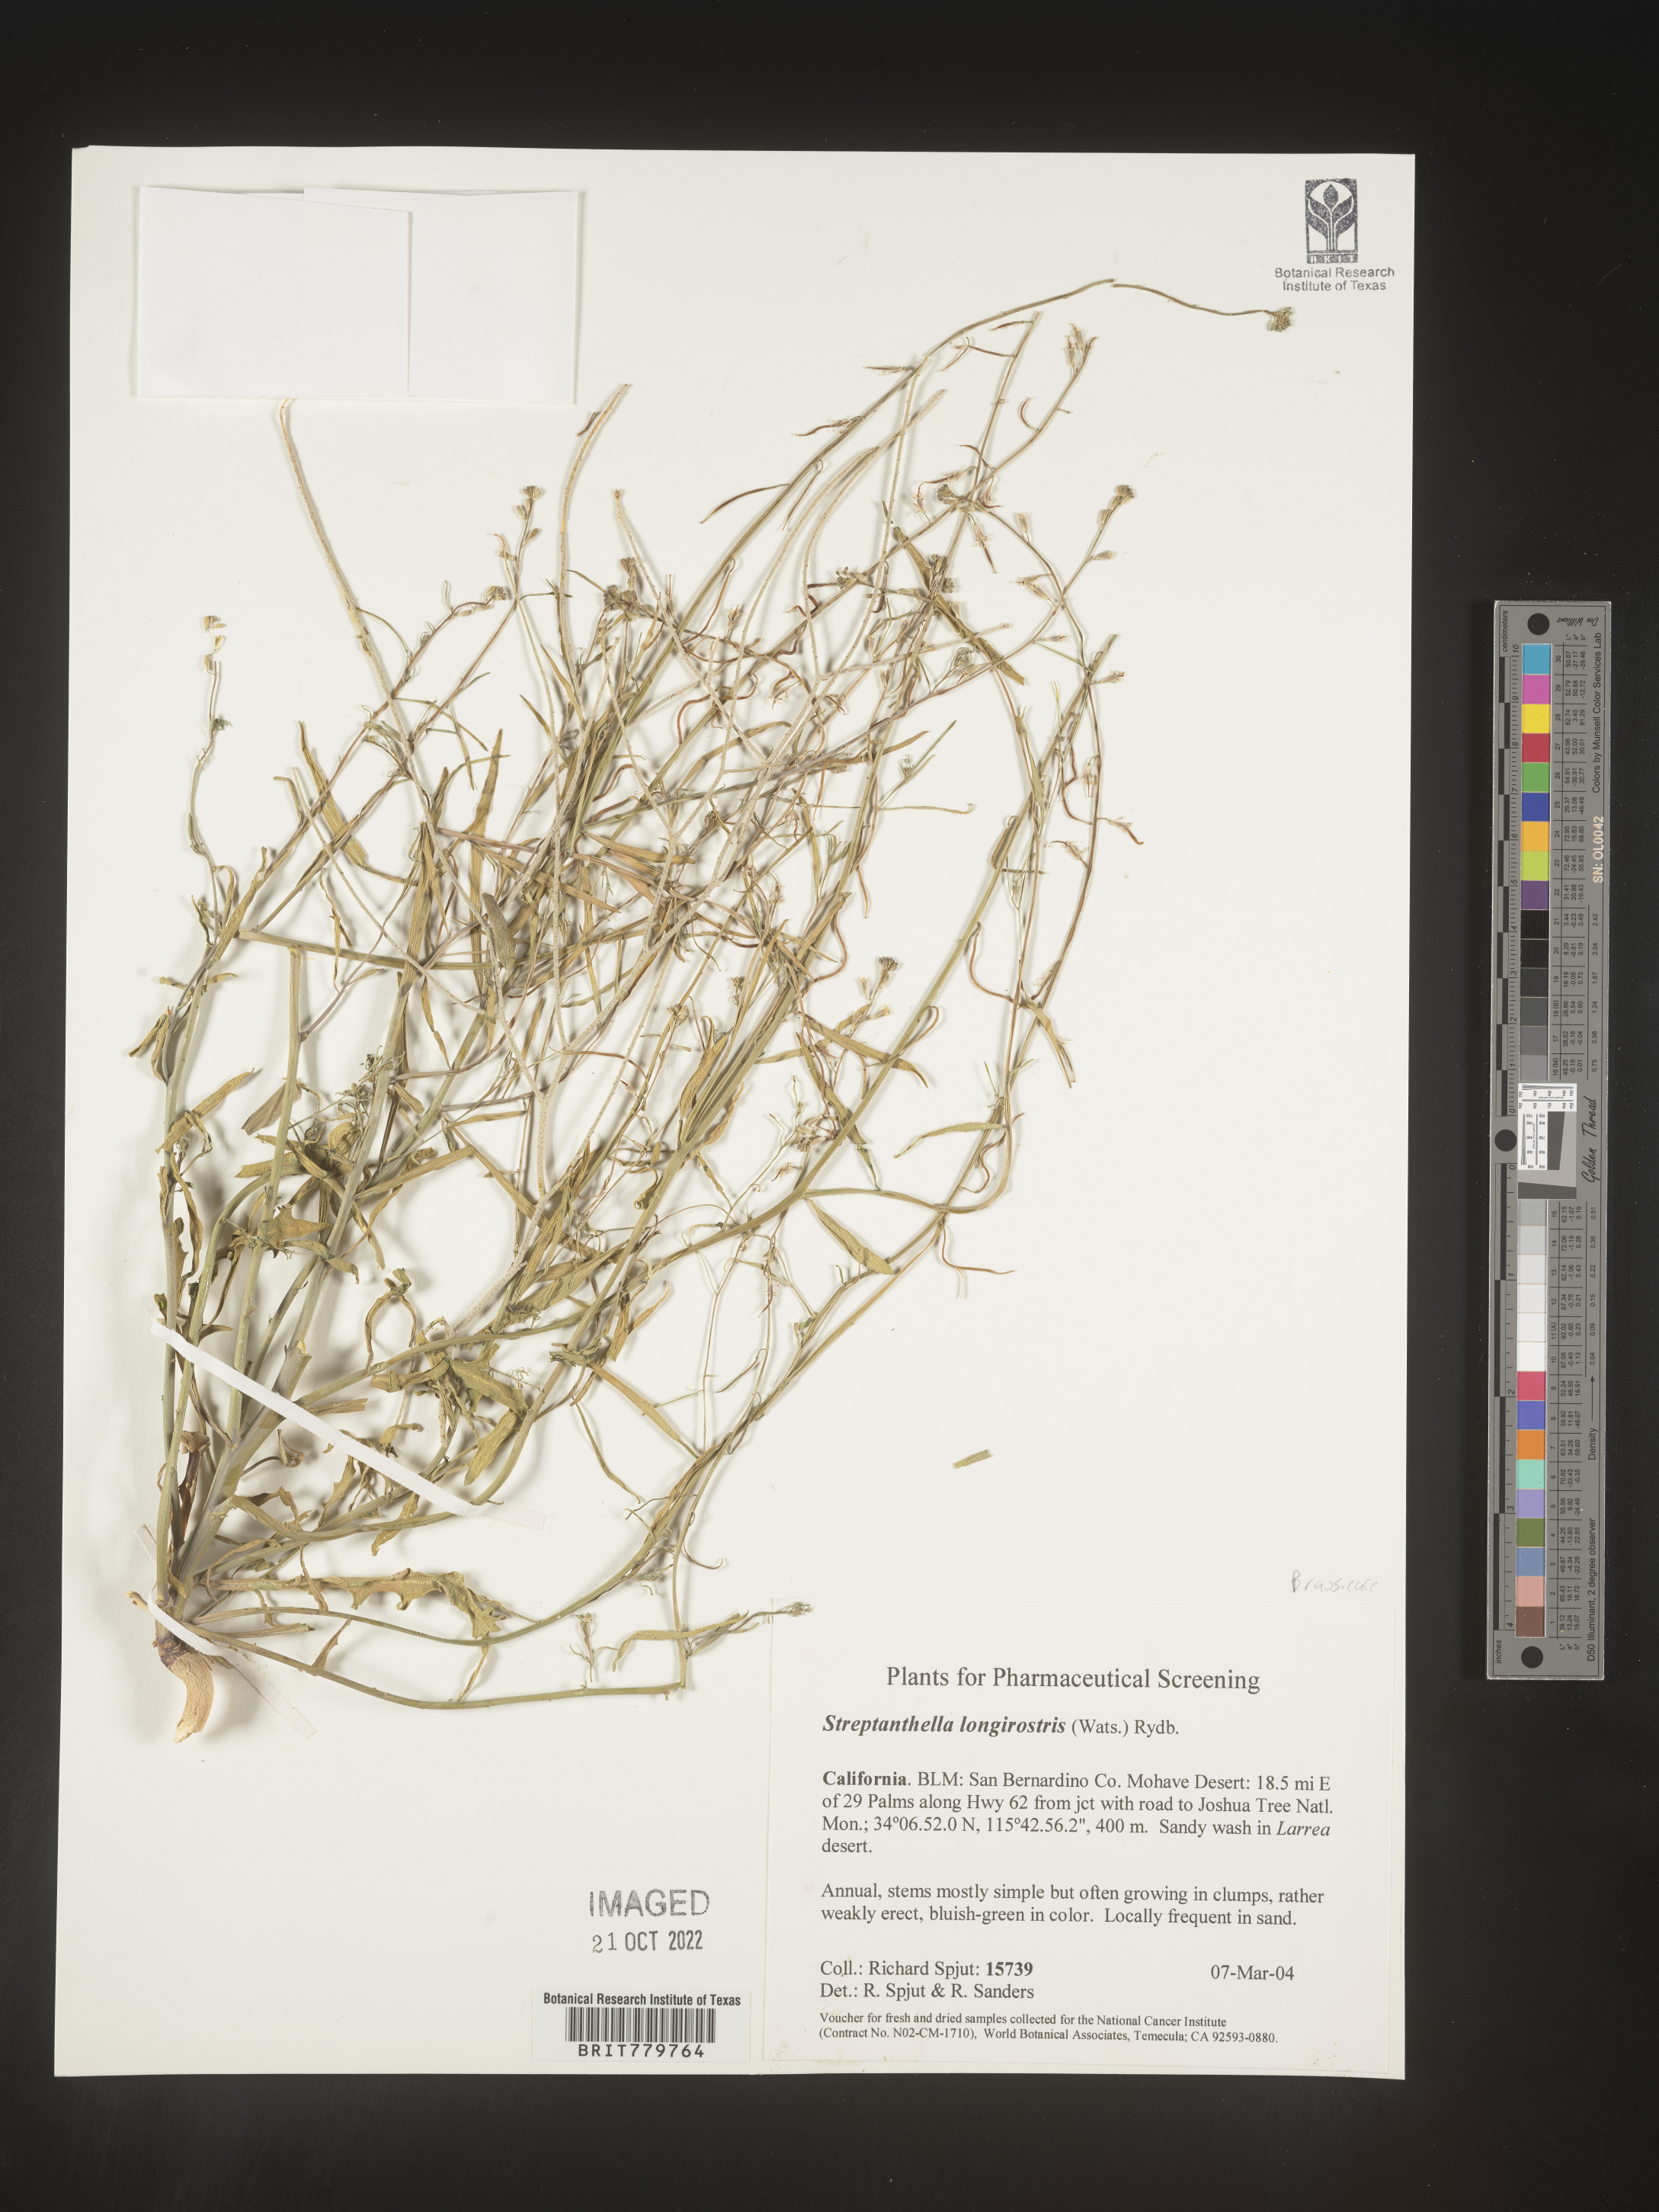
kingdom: Plantae
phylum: Tracheophyta
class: Magnoliopsida
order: Brassicales
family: Brassicaceae
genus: Streptanthus
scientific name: Streptanthus
